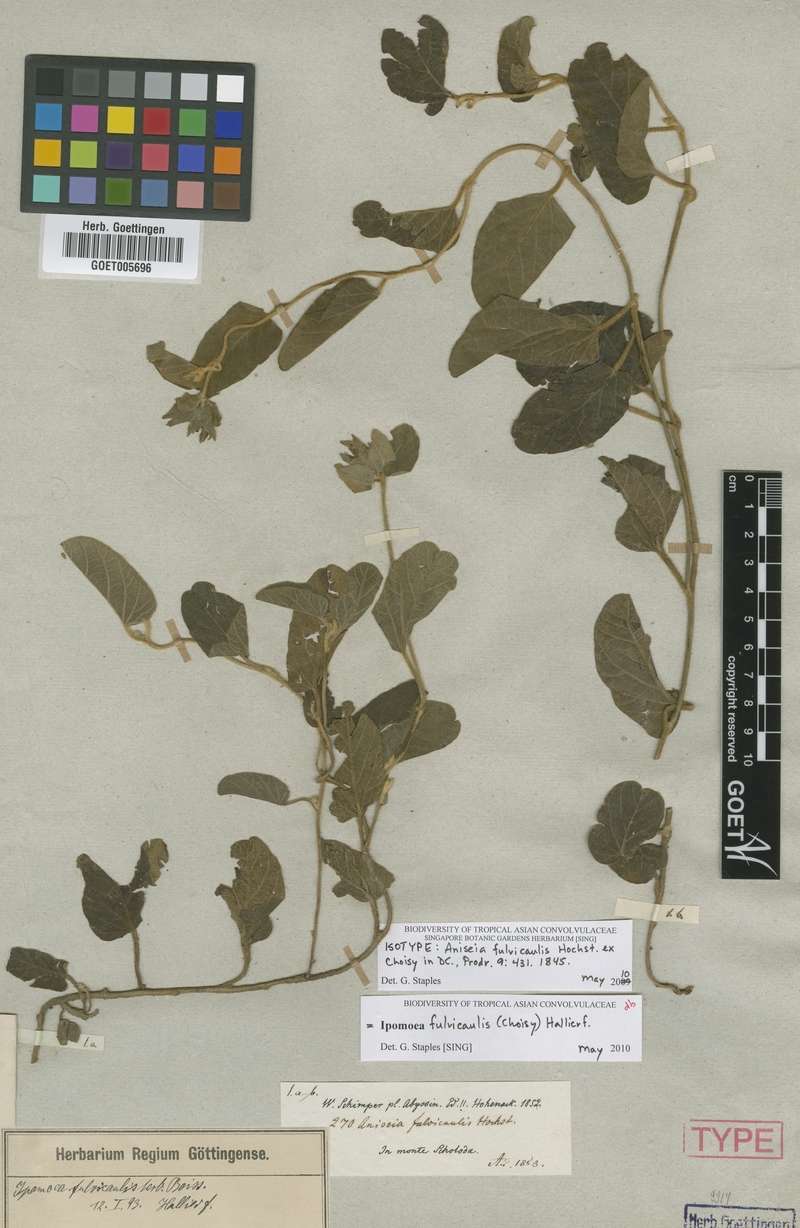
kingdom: Plantae
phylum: Tracheophyta
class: Magnoliopsida
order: Solanales
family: Convolvulaceae
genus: Ipomoea
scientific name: Ipomoea fulvicaulis
